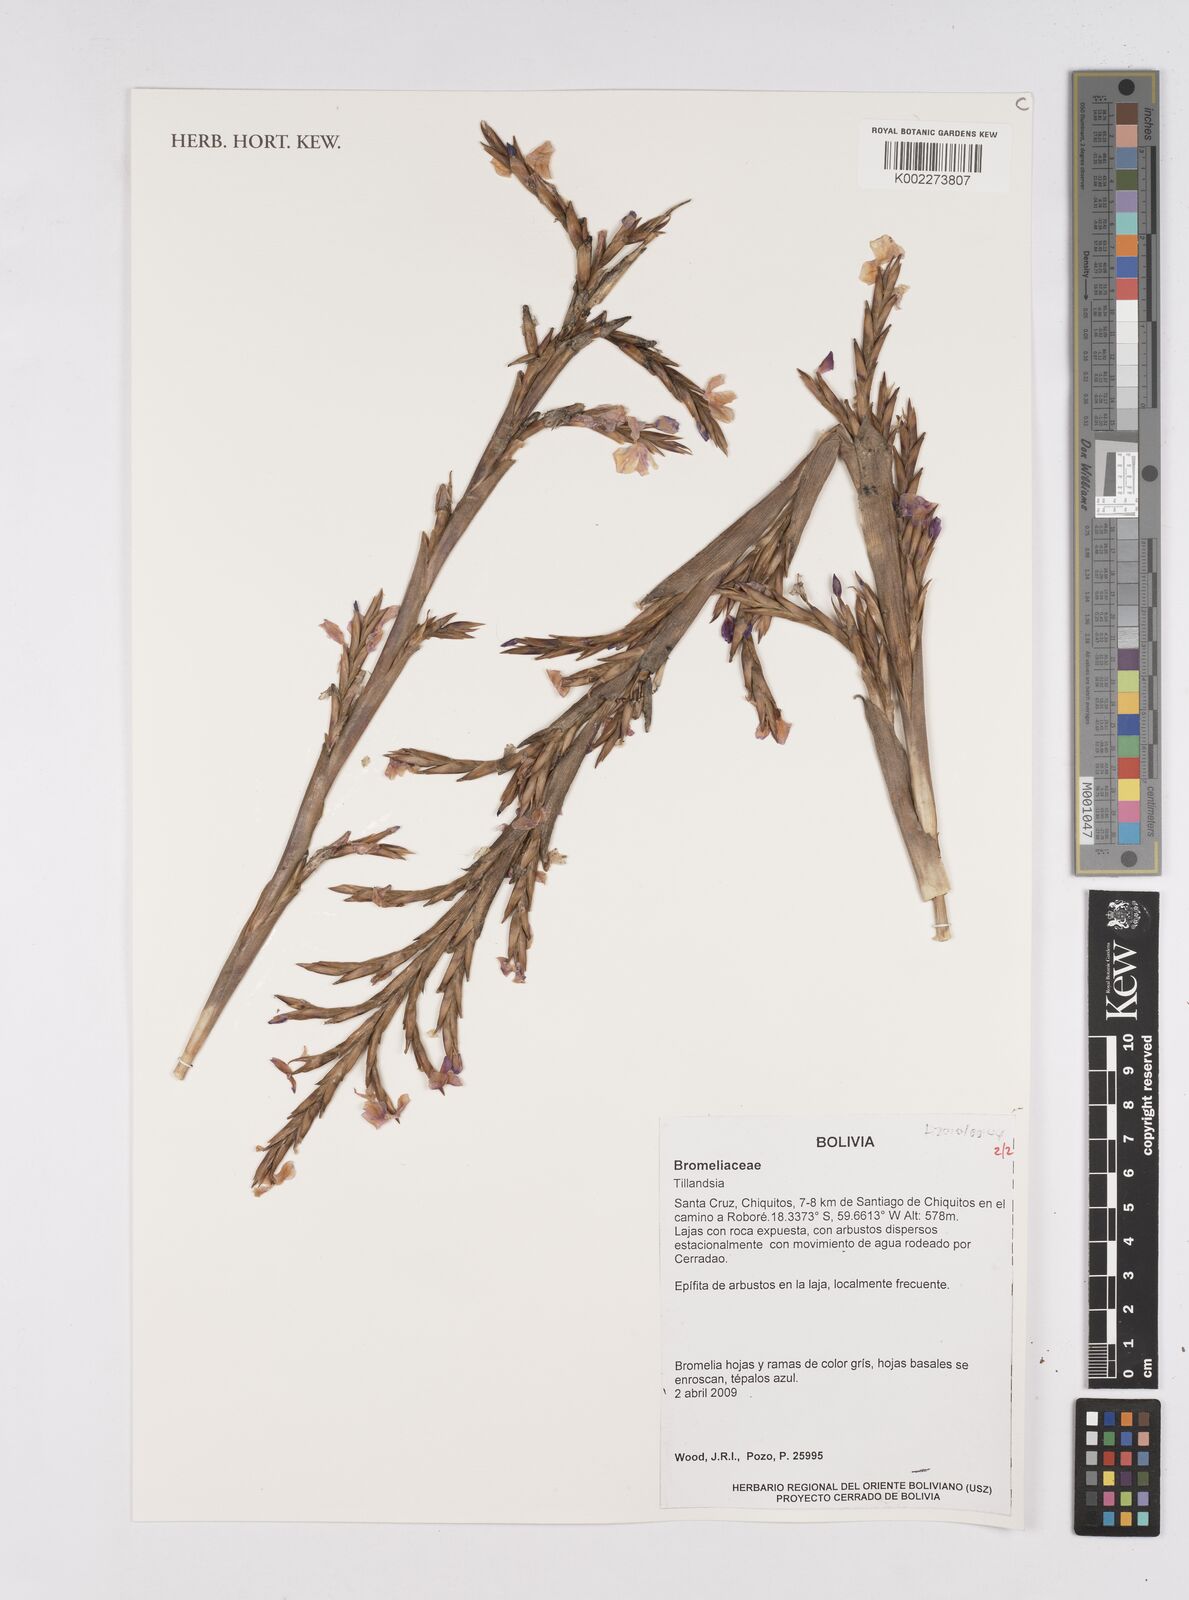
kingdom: Plantae
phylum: Tracheophyta
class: Liliopsida
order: Poales
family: Bromeliaceae
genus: Tillandsia
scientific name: Tillandsia
